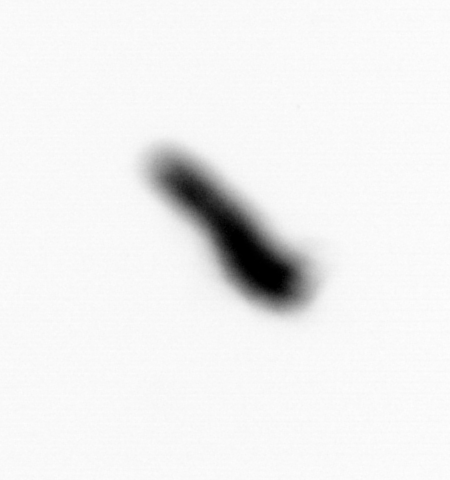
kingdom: Animalia
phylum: Annelida
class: Polychaeta
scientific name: Polychaeta
